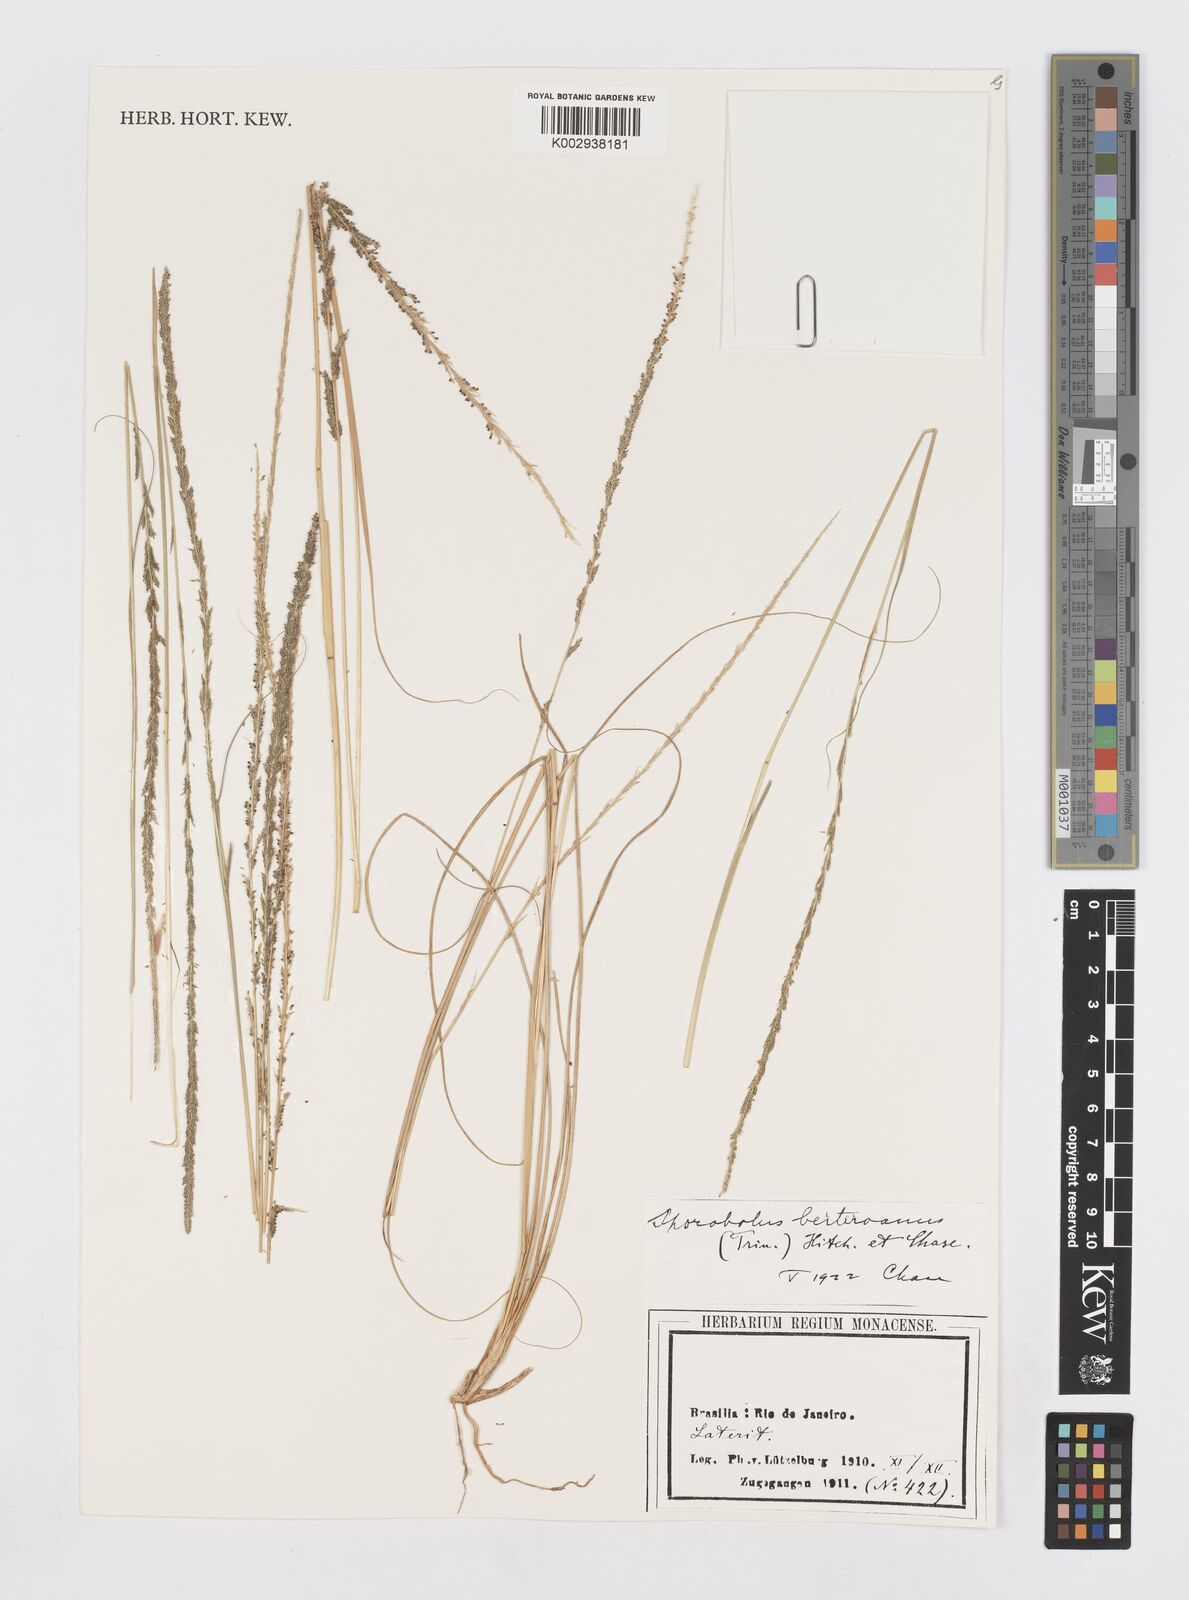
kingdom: Plantae
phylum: Tracheophyta
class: Liliopsida
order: Poales
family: Poaceae
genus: Sporobolus
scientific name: Sporobolus indicus
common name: Smut grass
